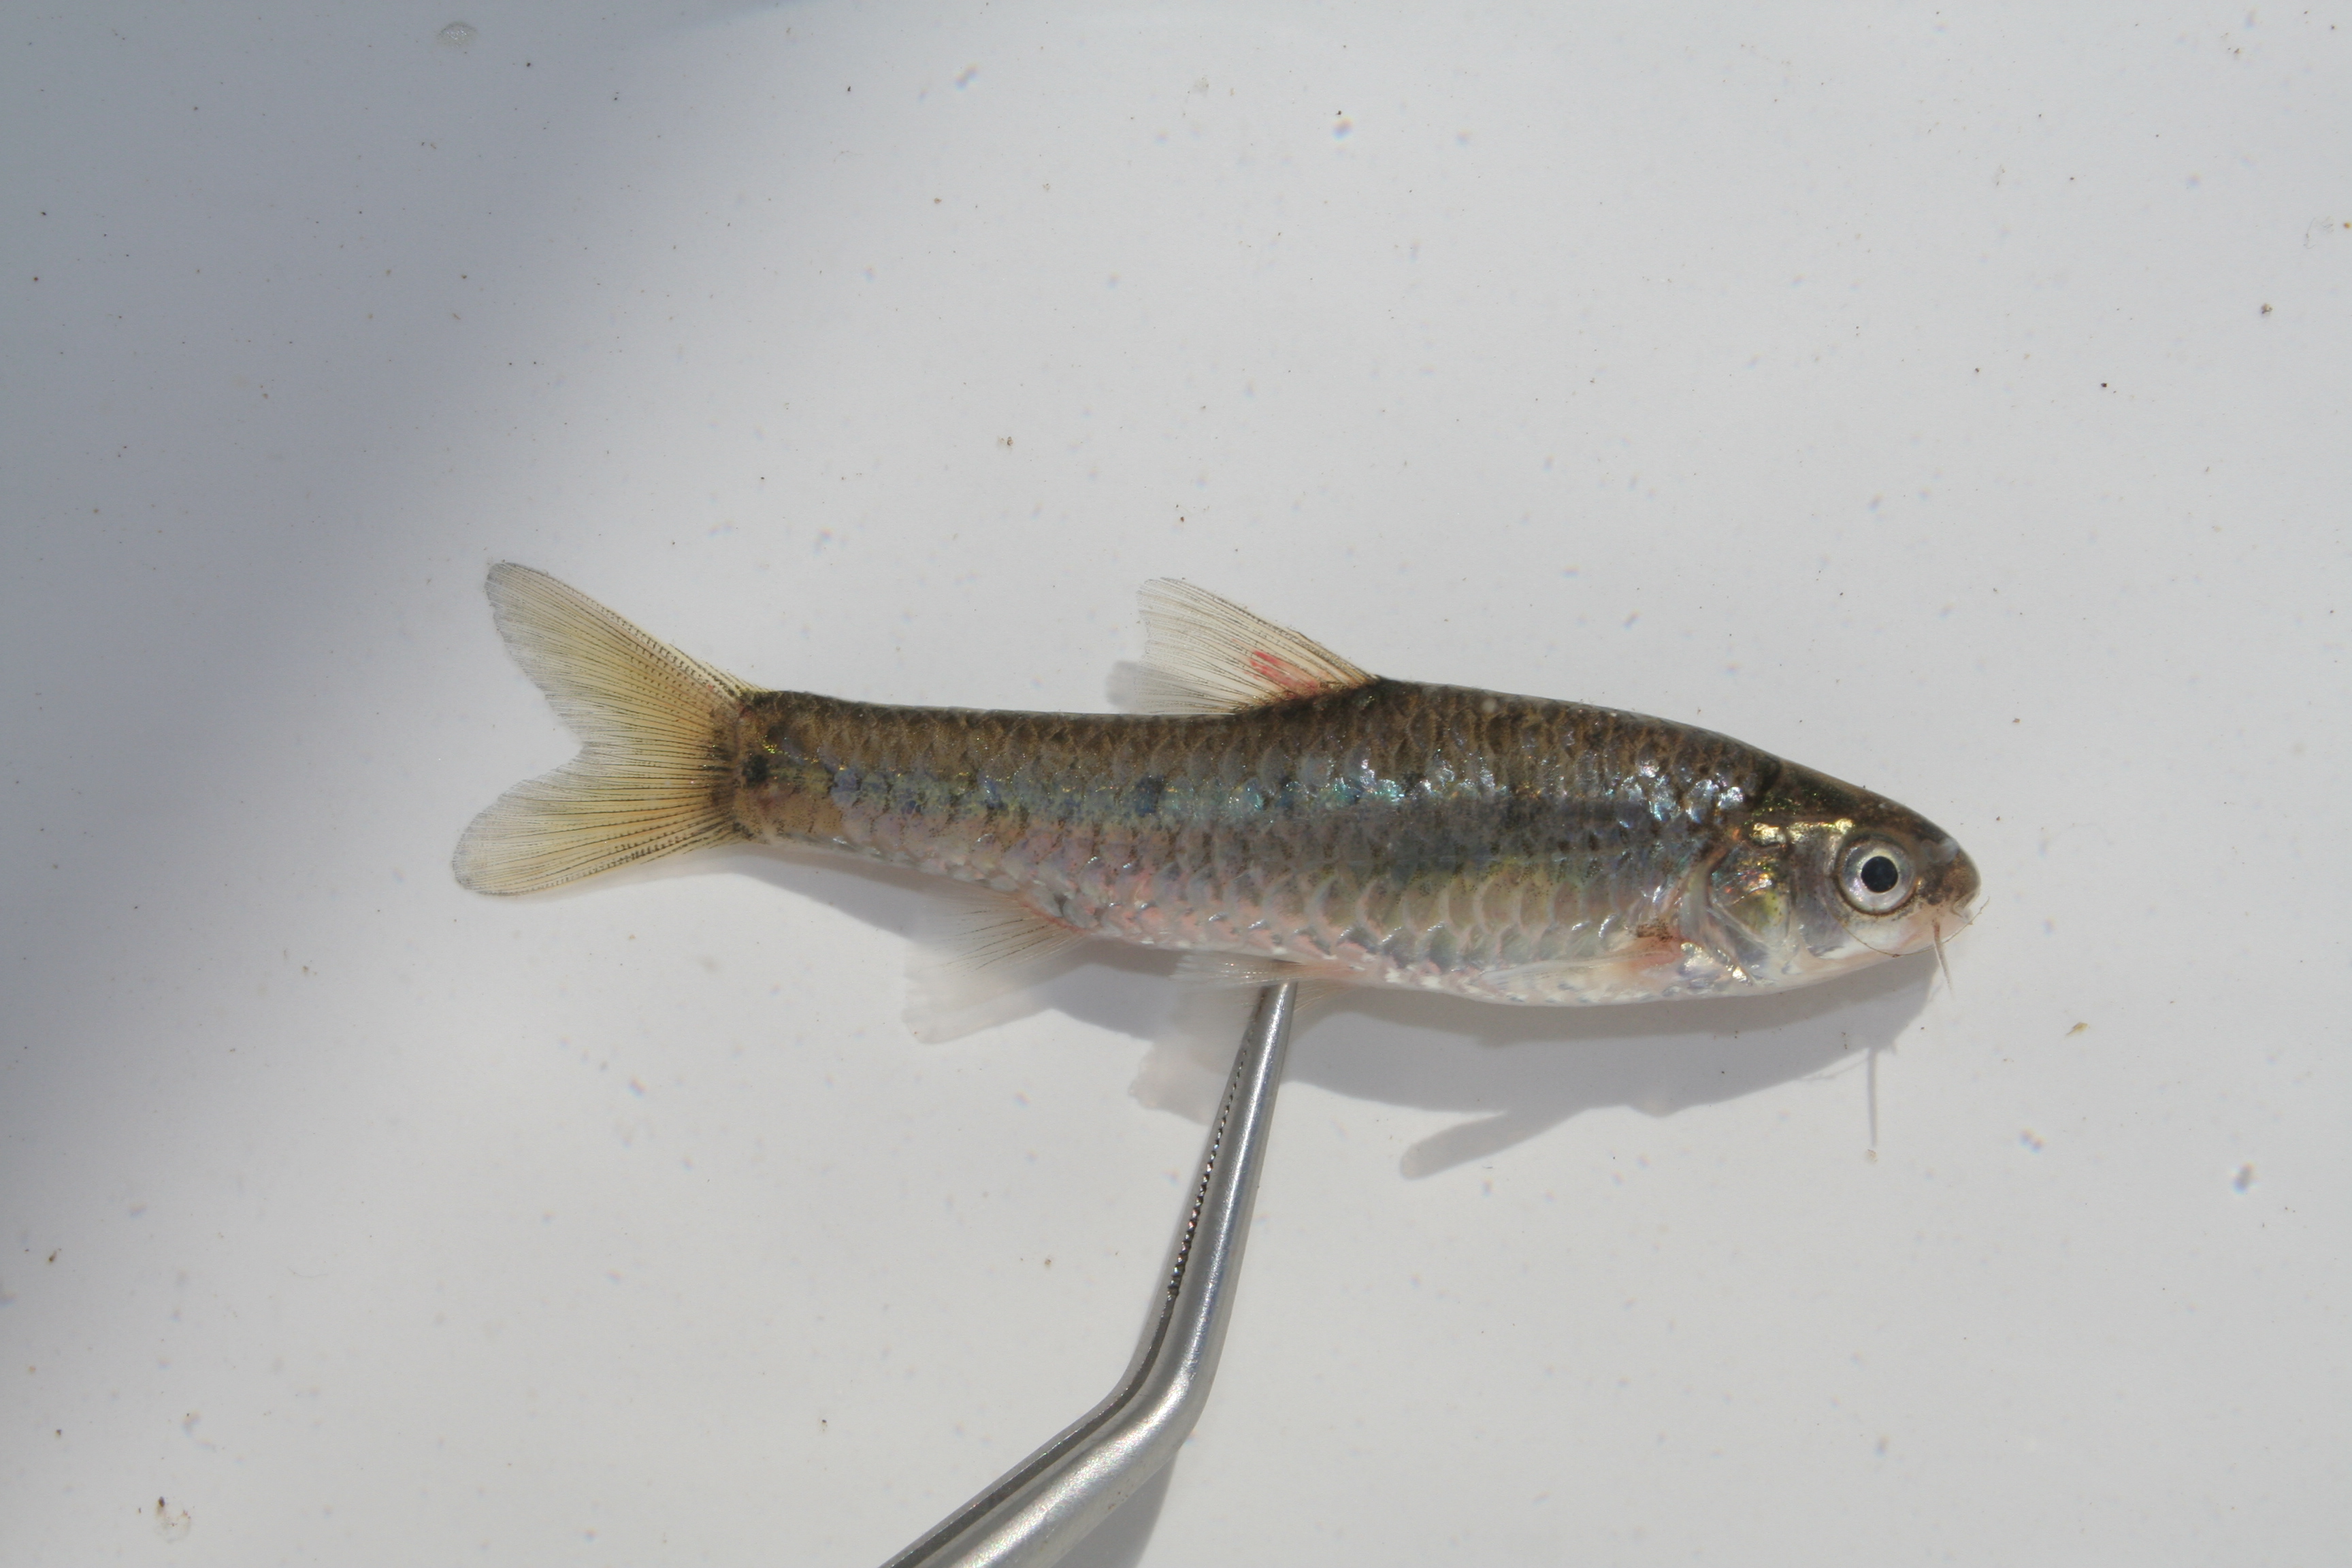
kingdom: Animalia
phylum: Chordata
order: Cypriniformes
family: Cyprinidae
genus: Enteromius
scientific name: Enteromius pallidus
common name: Goldie barb
